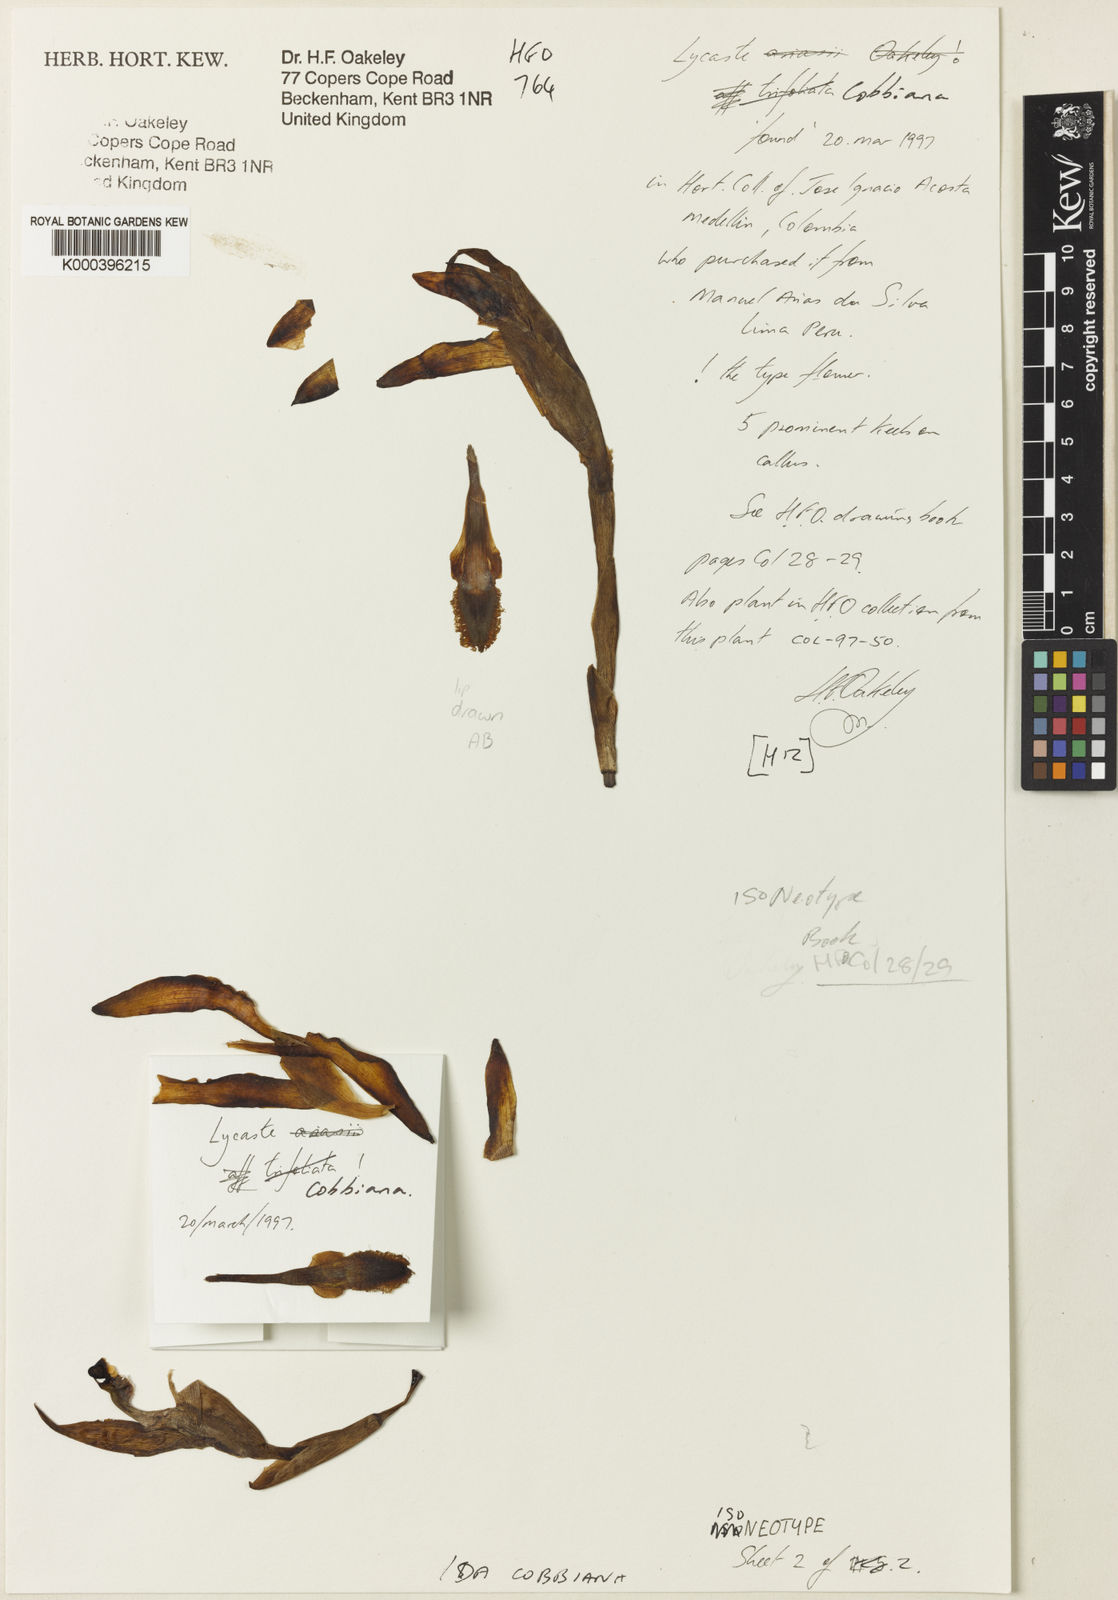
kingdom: Plantae
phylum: Tracheophyta
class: Liliopsida
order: Asparagales
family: Orchidaceae
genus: Ida
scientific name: Ida cobbiana
